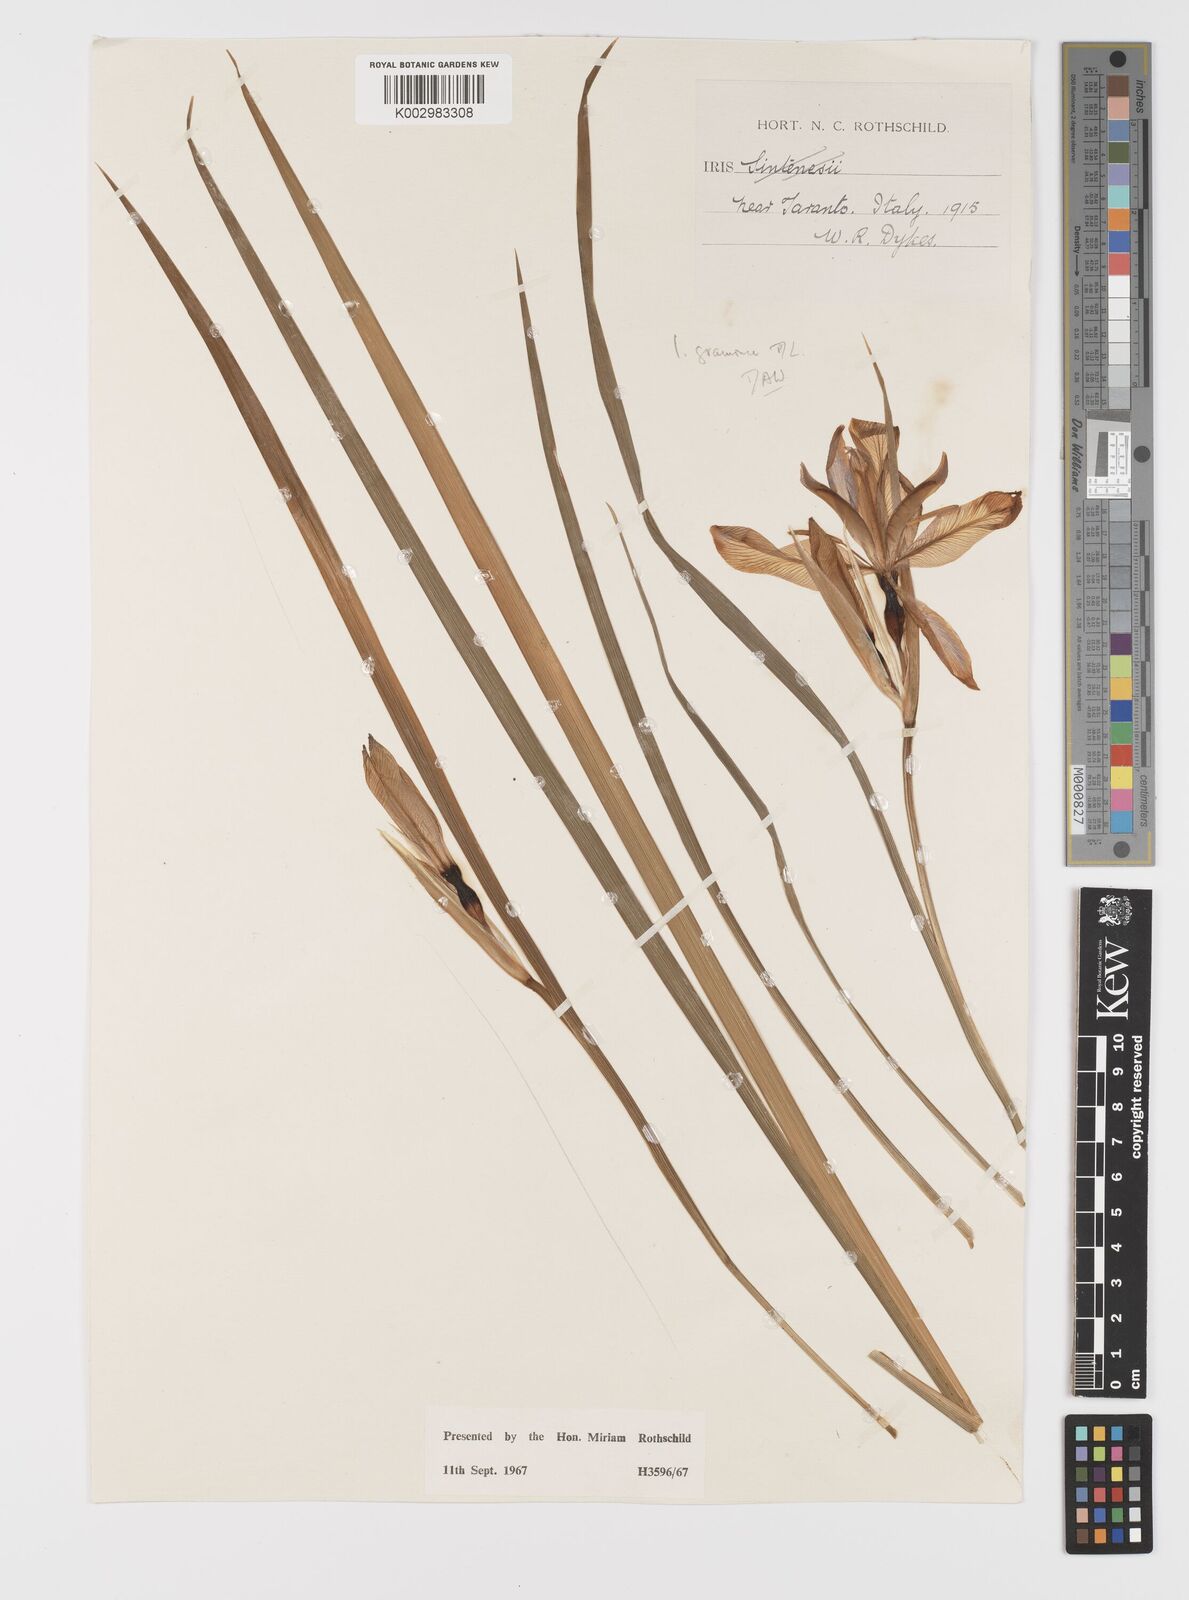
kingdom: Plantae
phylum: Tracheophyta
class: Liliopsida
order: Asparagales
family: Iridaceae
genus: Iris
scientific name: Iris graminea
